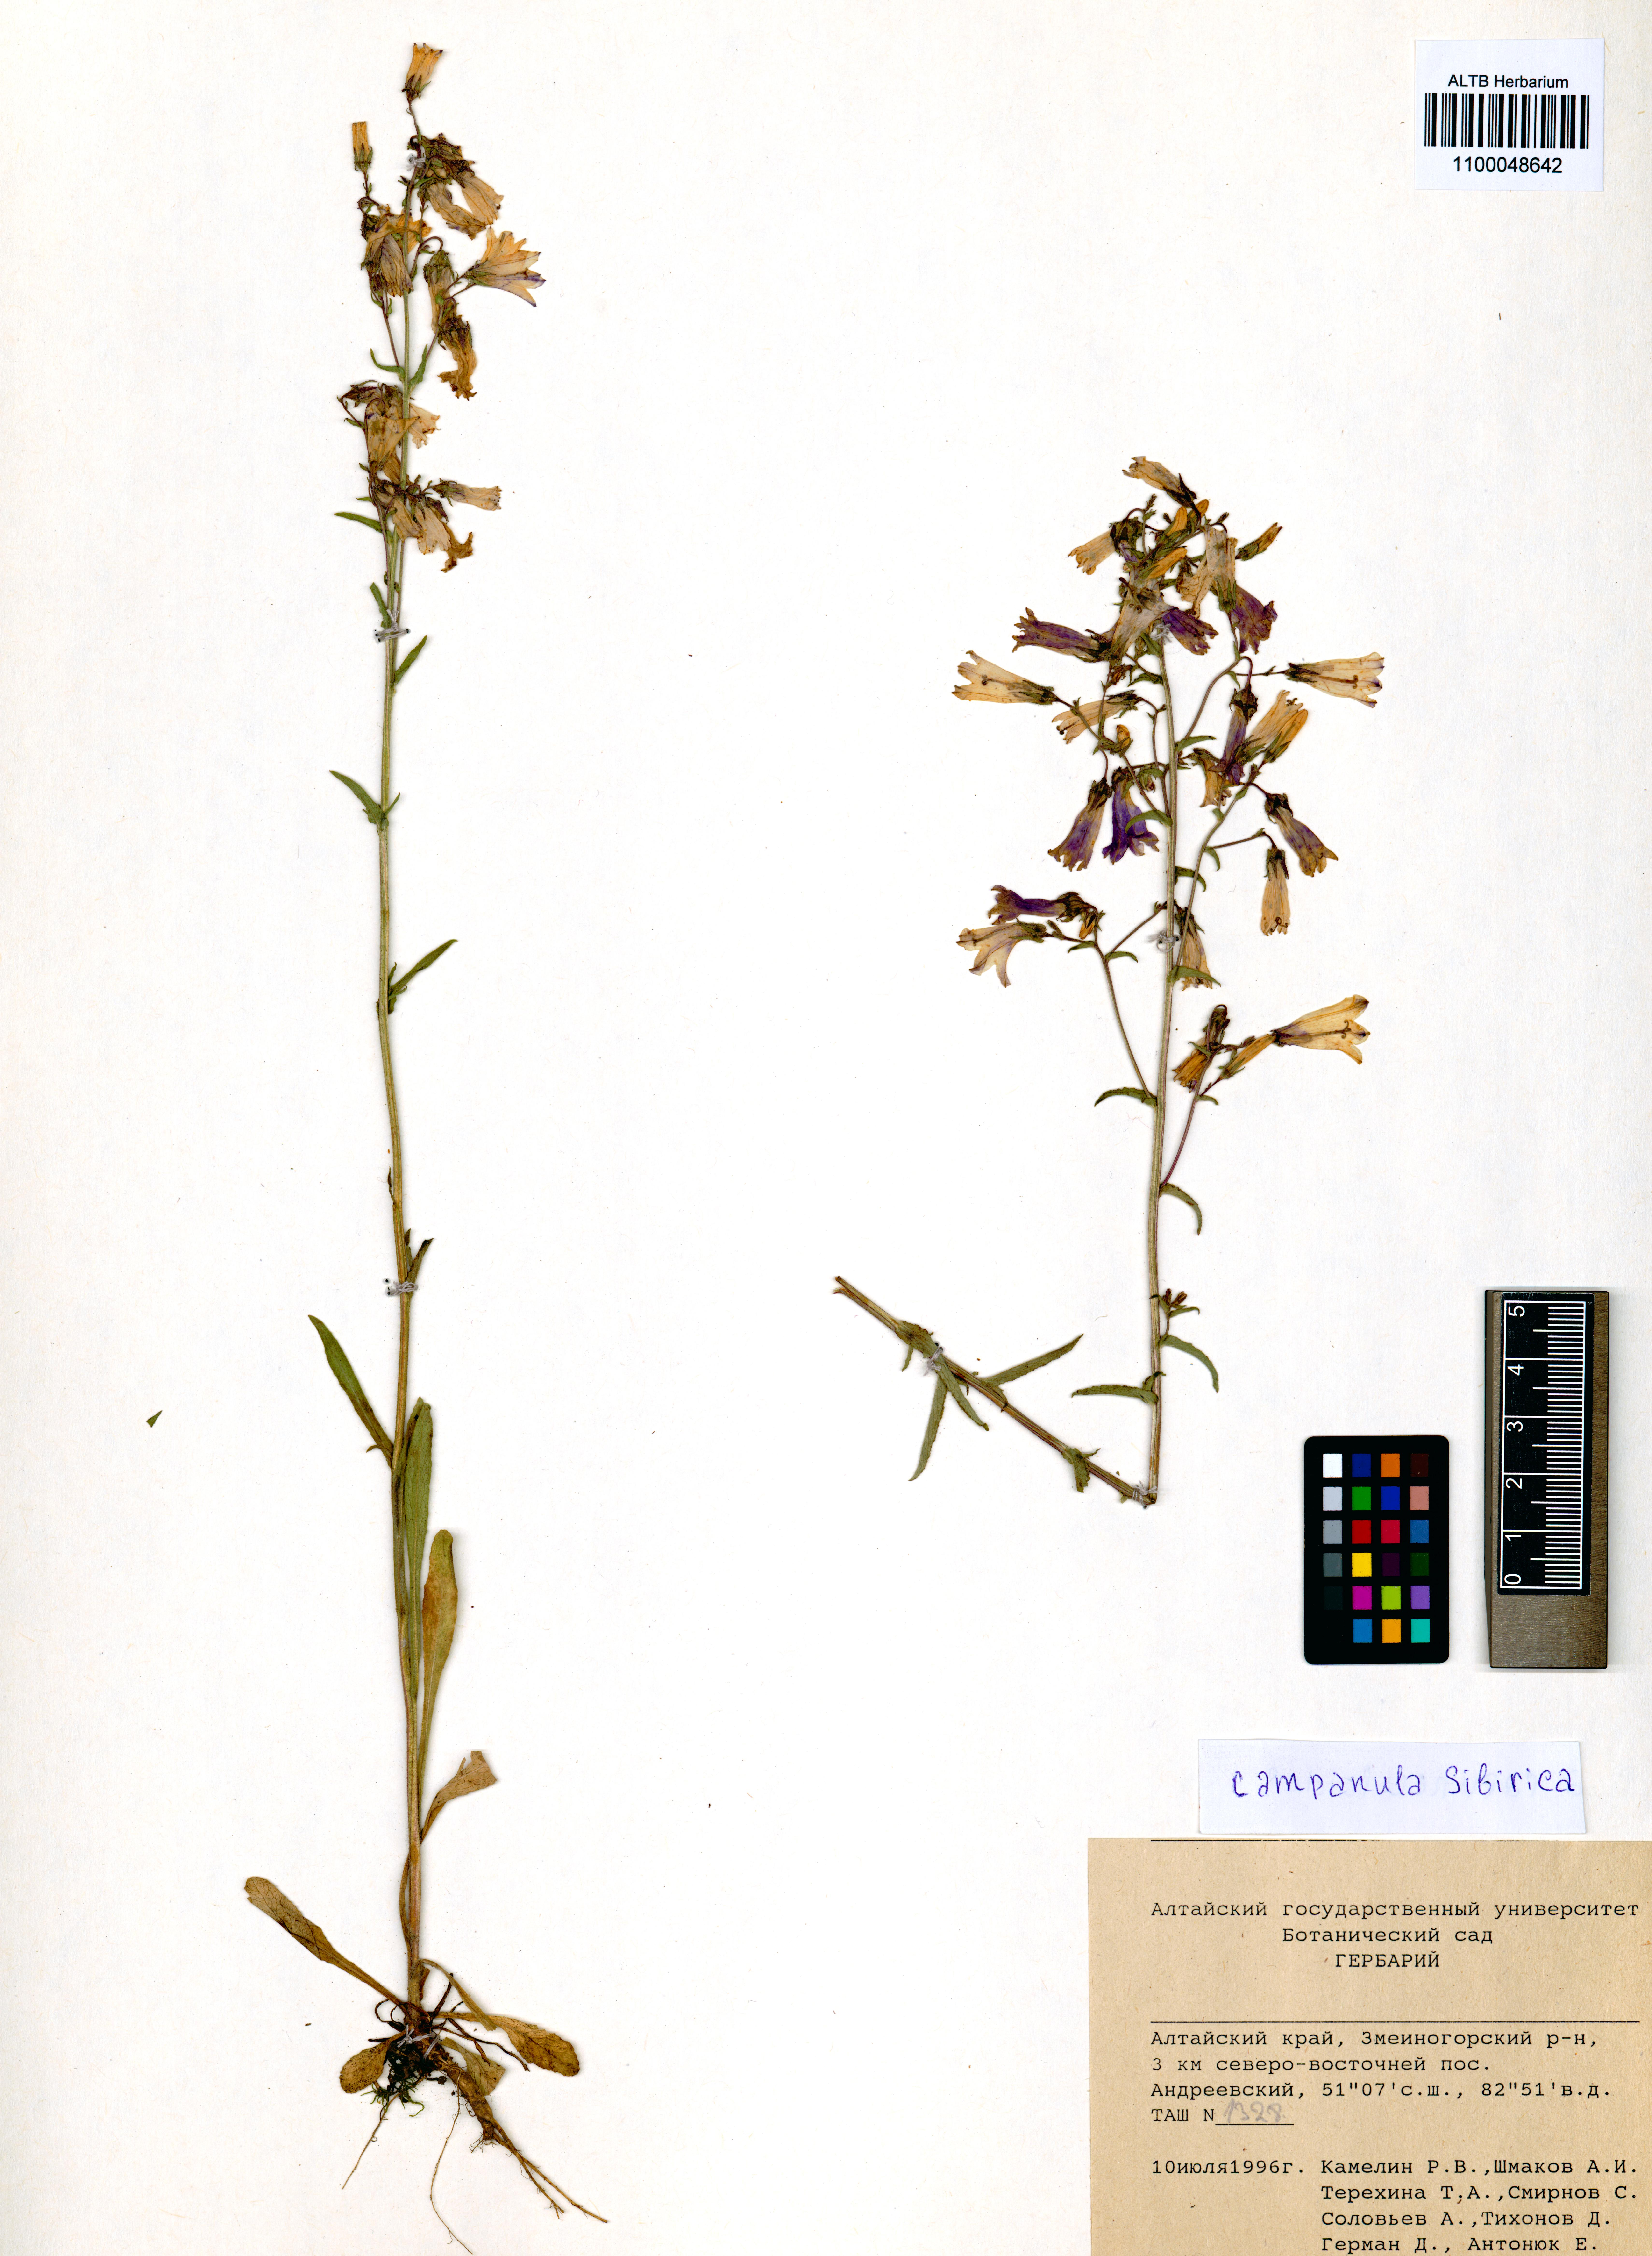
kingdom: Plantae
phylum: Tracheophyta
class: Magnoliopsida
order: Asterales
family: Campanulaceae
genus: Campanula
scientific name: Campanula sibirica
